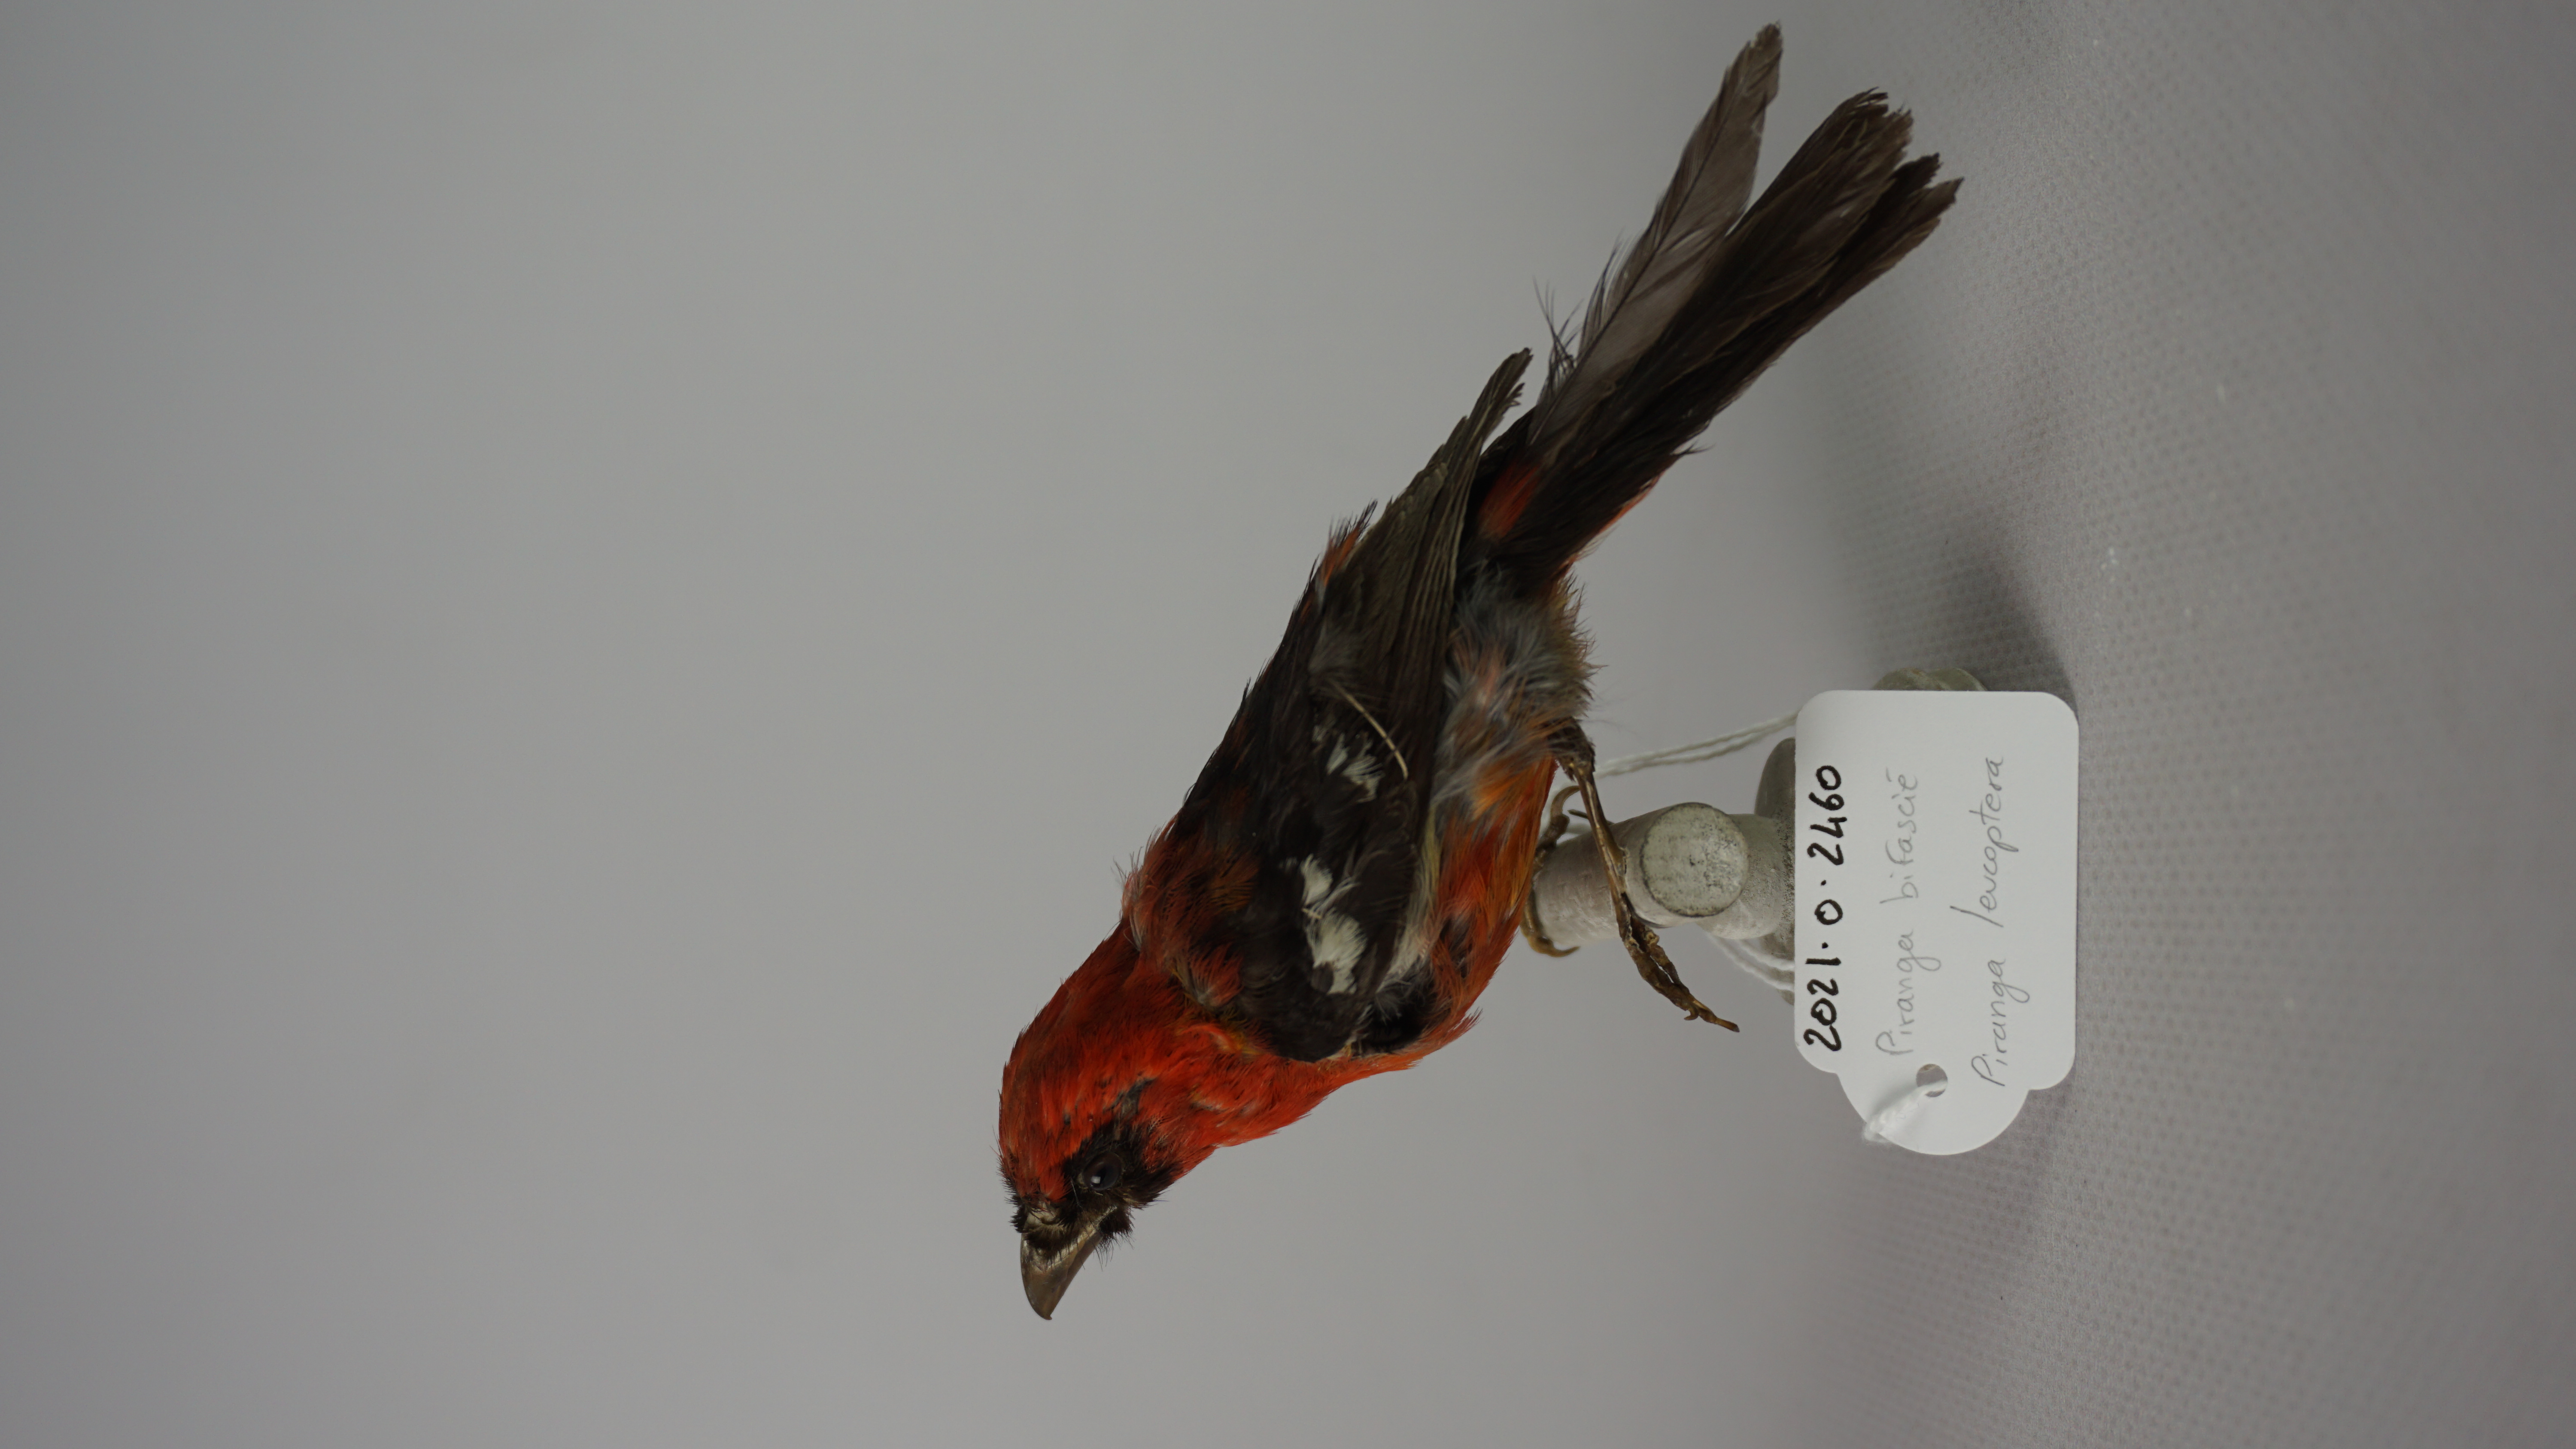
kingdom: Animalia
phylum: Chordata
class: Aves
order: Passeriformes
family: Cardinalidae
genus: Piranga
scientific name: Piranga leucoptera
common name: White-winged tanager
